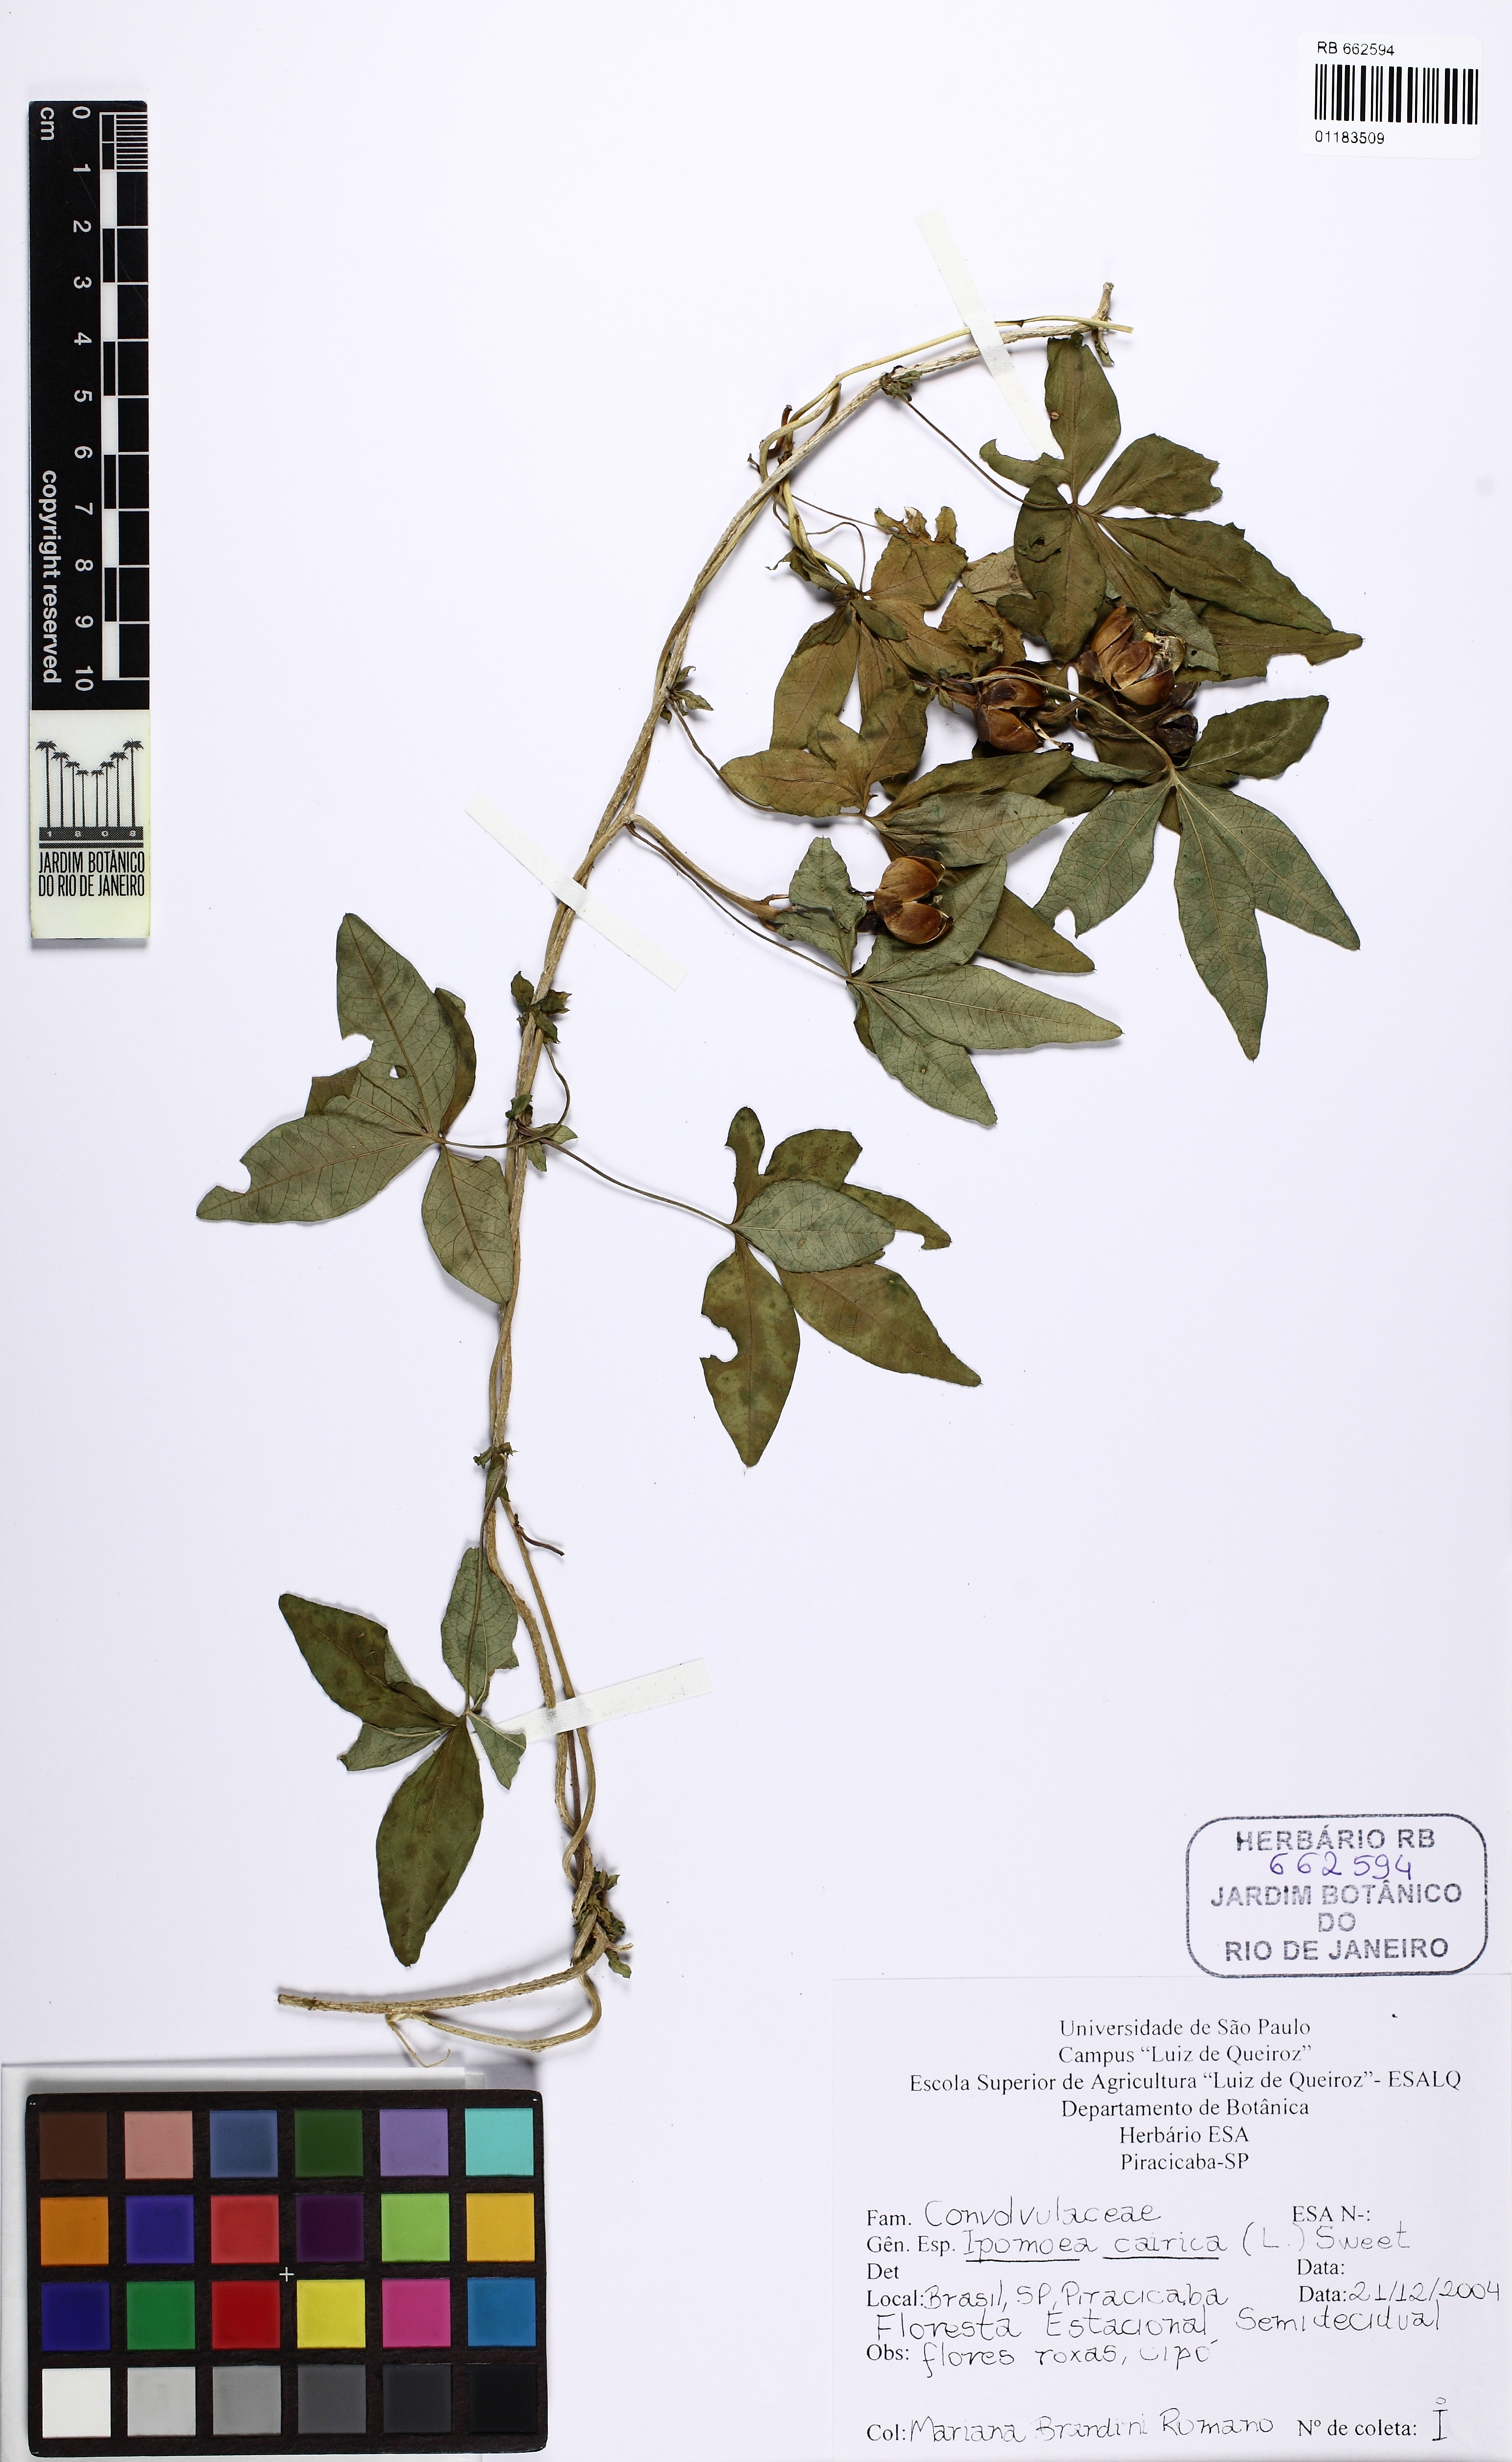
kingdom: Plantae
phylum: Tracheophyta
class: Magnoliopsida
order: Solanales
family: Convolvulaceae
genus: Ipomoea
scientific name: Ipomoea cairica
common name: Mile a minute vine
